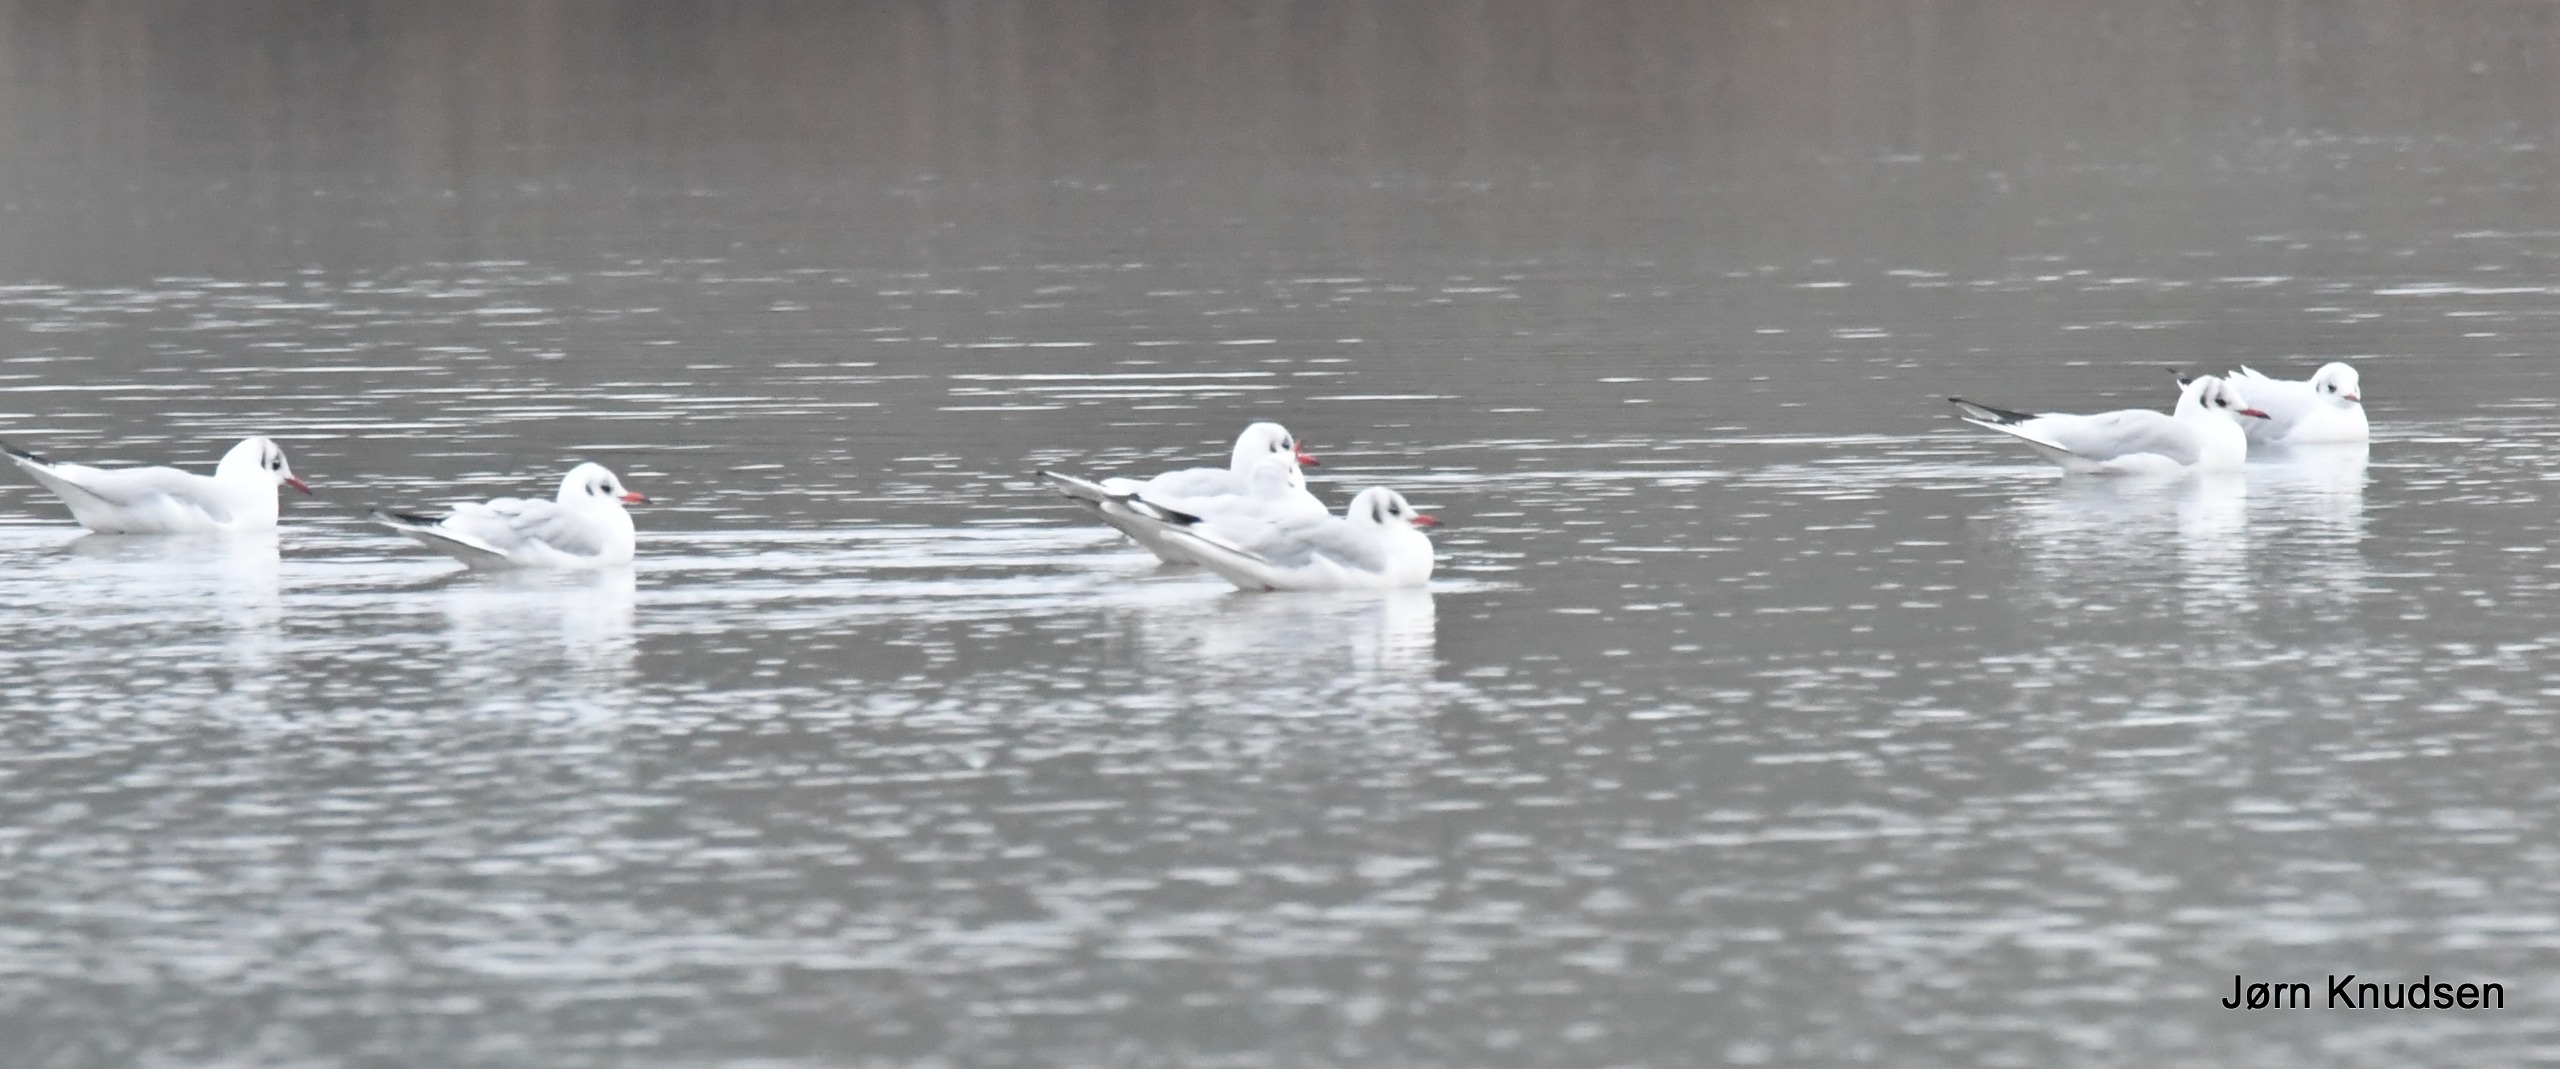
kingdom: Animalia
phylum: Chordata
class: Aves
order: Charadriiformes
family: Laridae
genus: Chroicocephalus
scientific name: Chroicocephalus ridibundus
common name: Hættemåge
